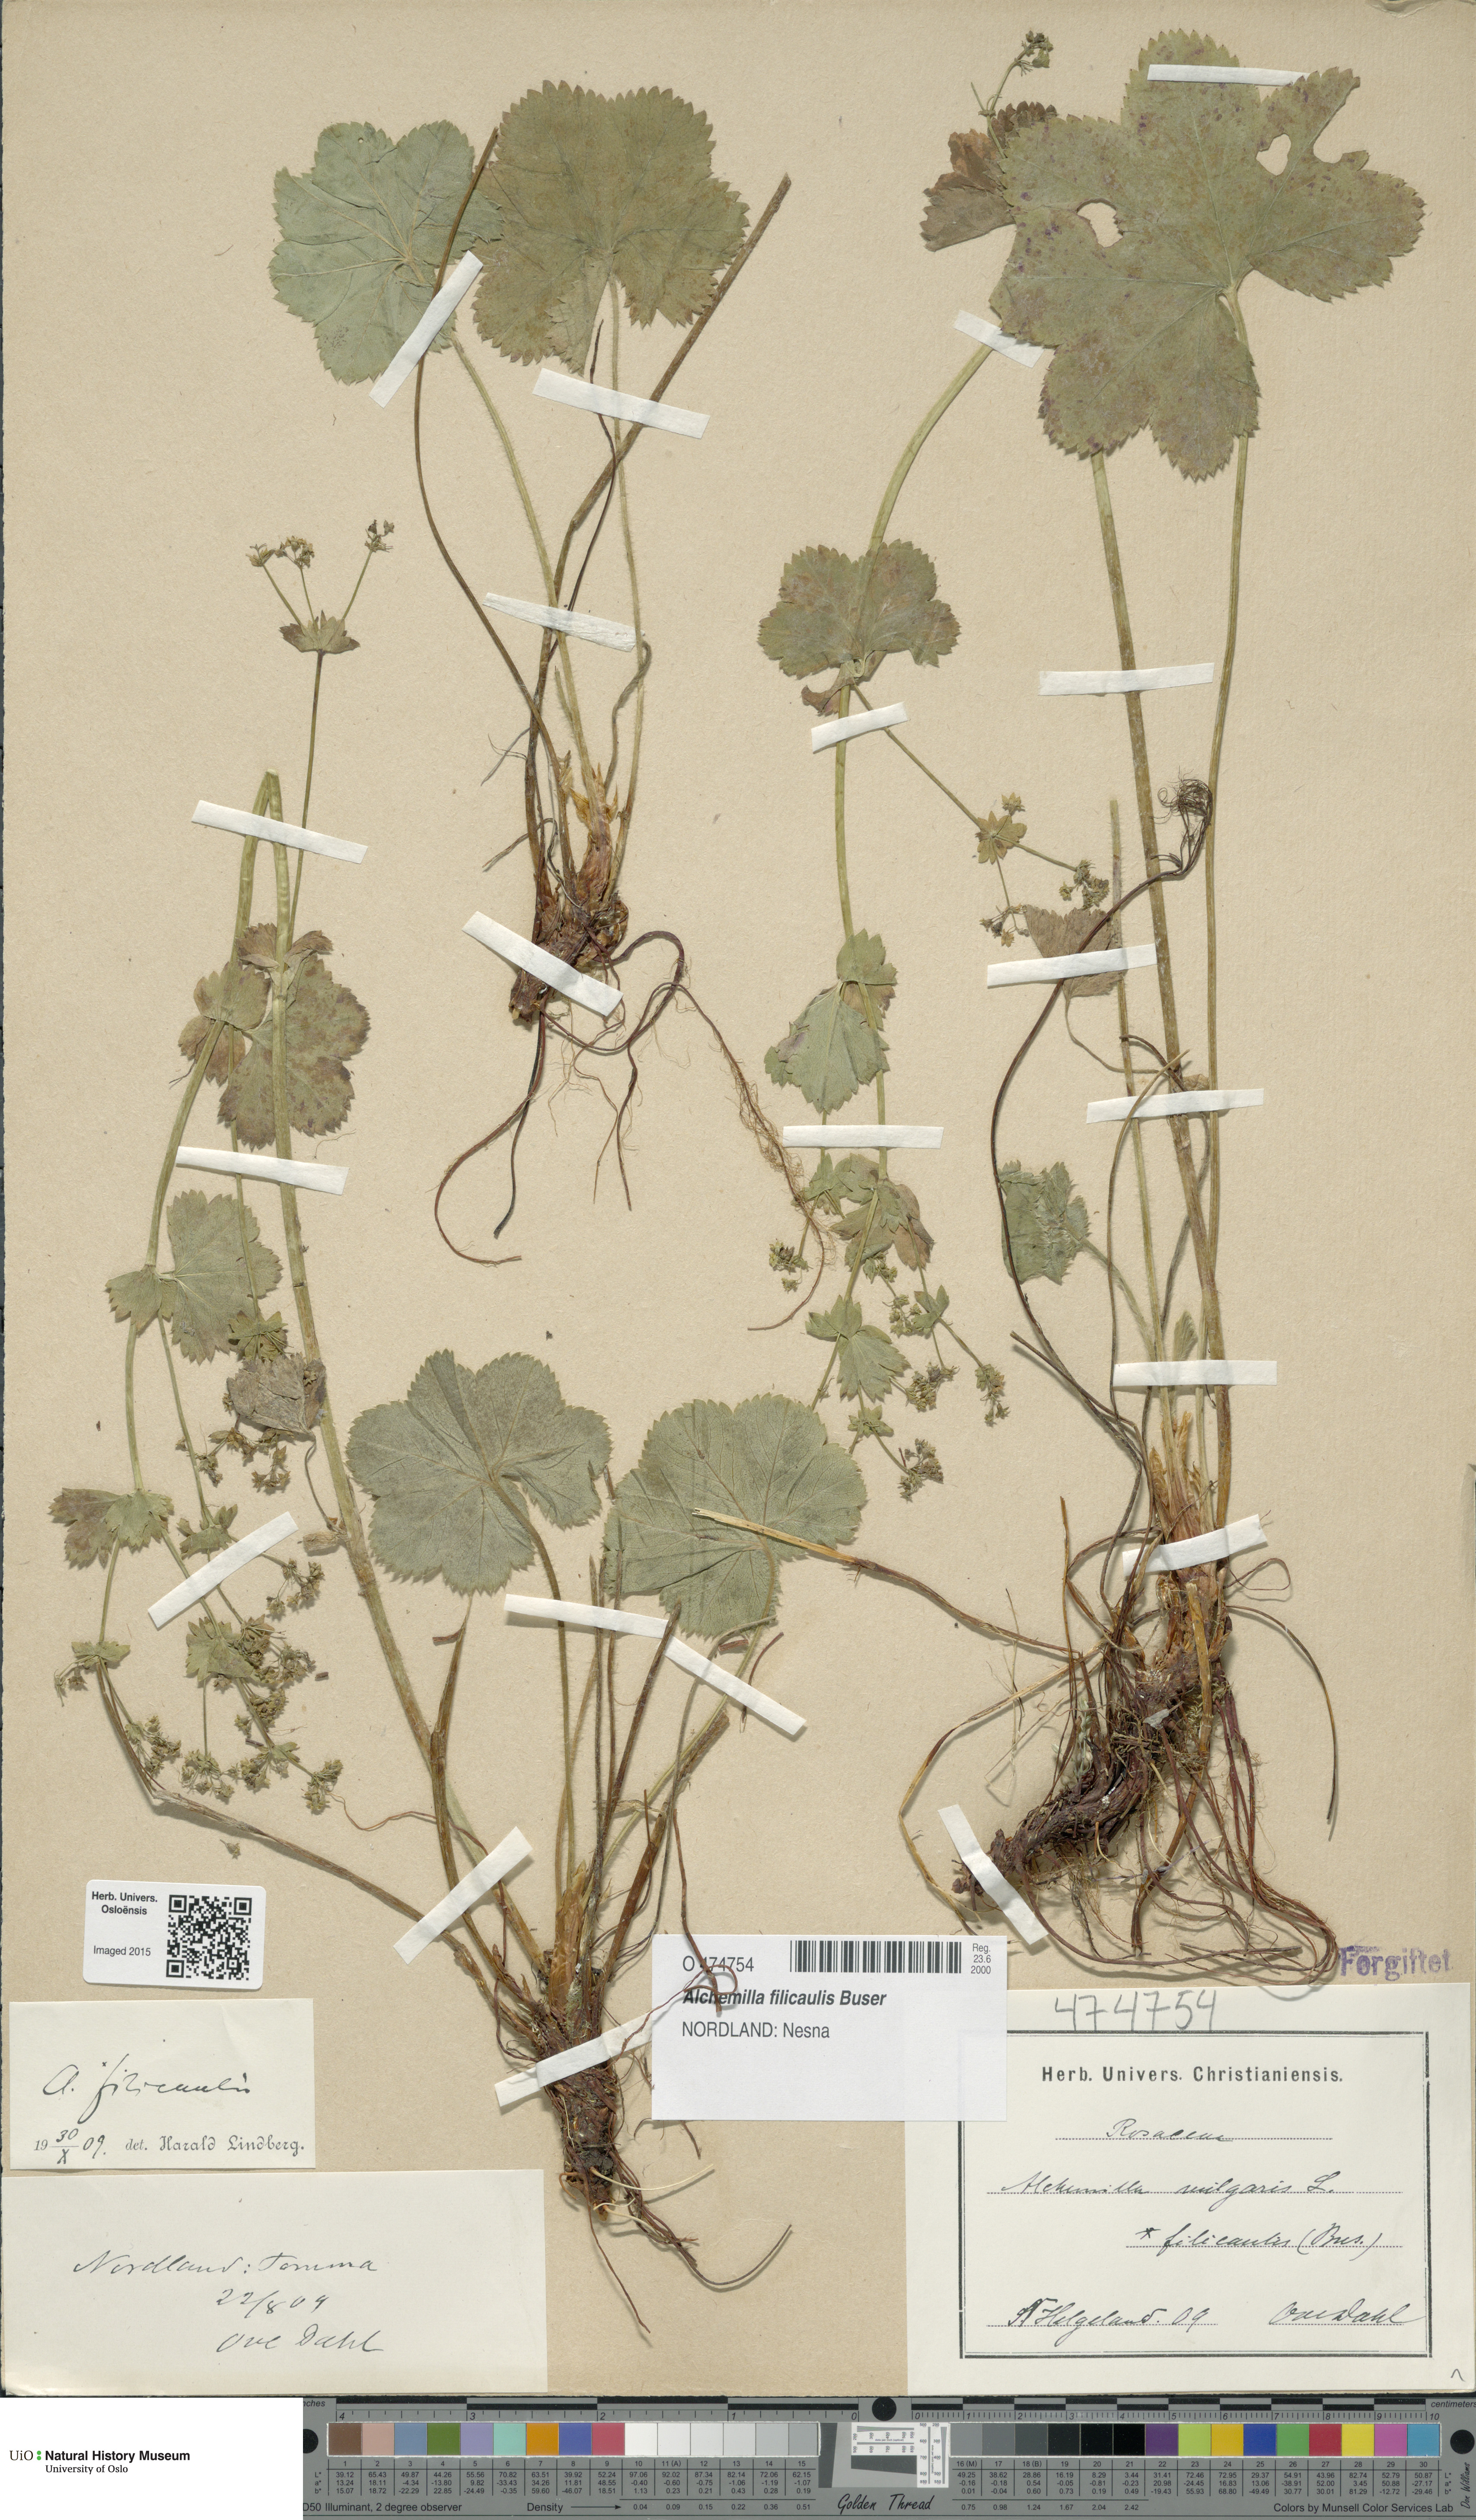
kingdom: Plantae
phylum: Tracheophyta
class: Magnoliopsida
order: Rosales
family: Rosaceae
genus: Alchemilla
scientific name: Alchemilla filicaulis
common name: Hairy lady's-mantle
